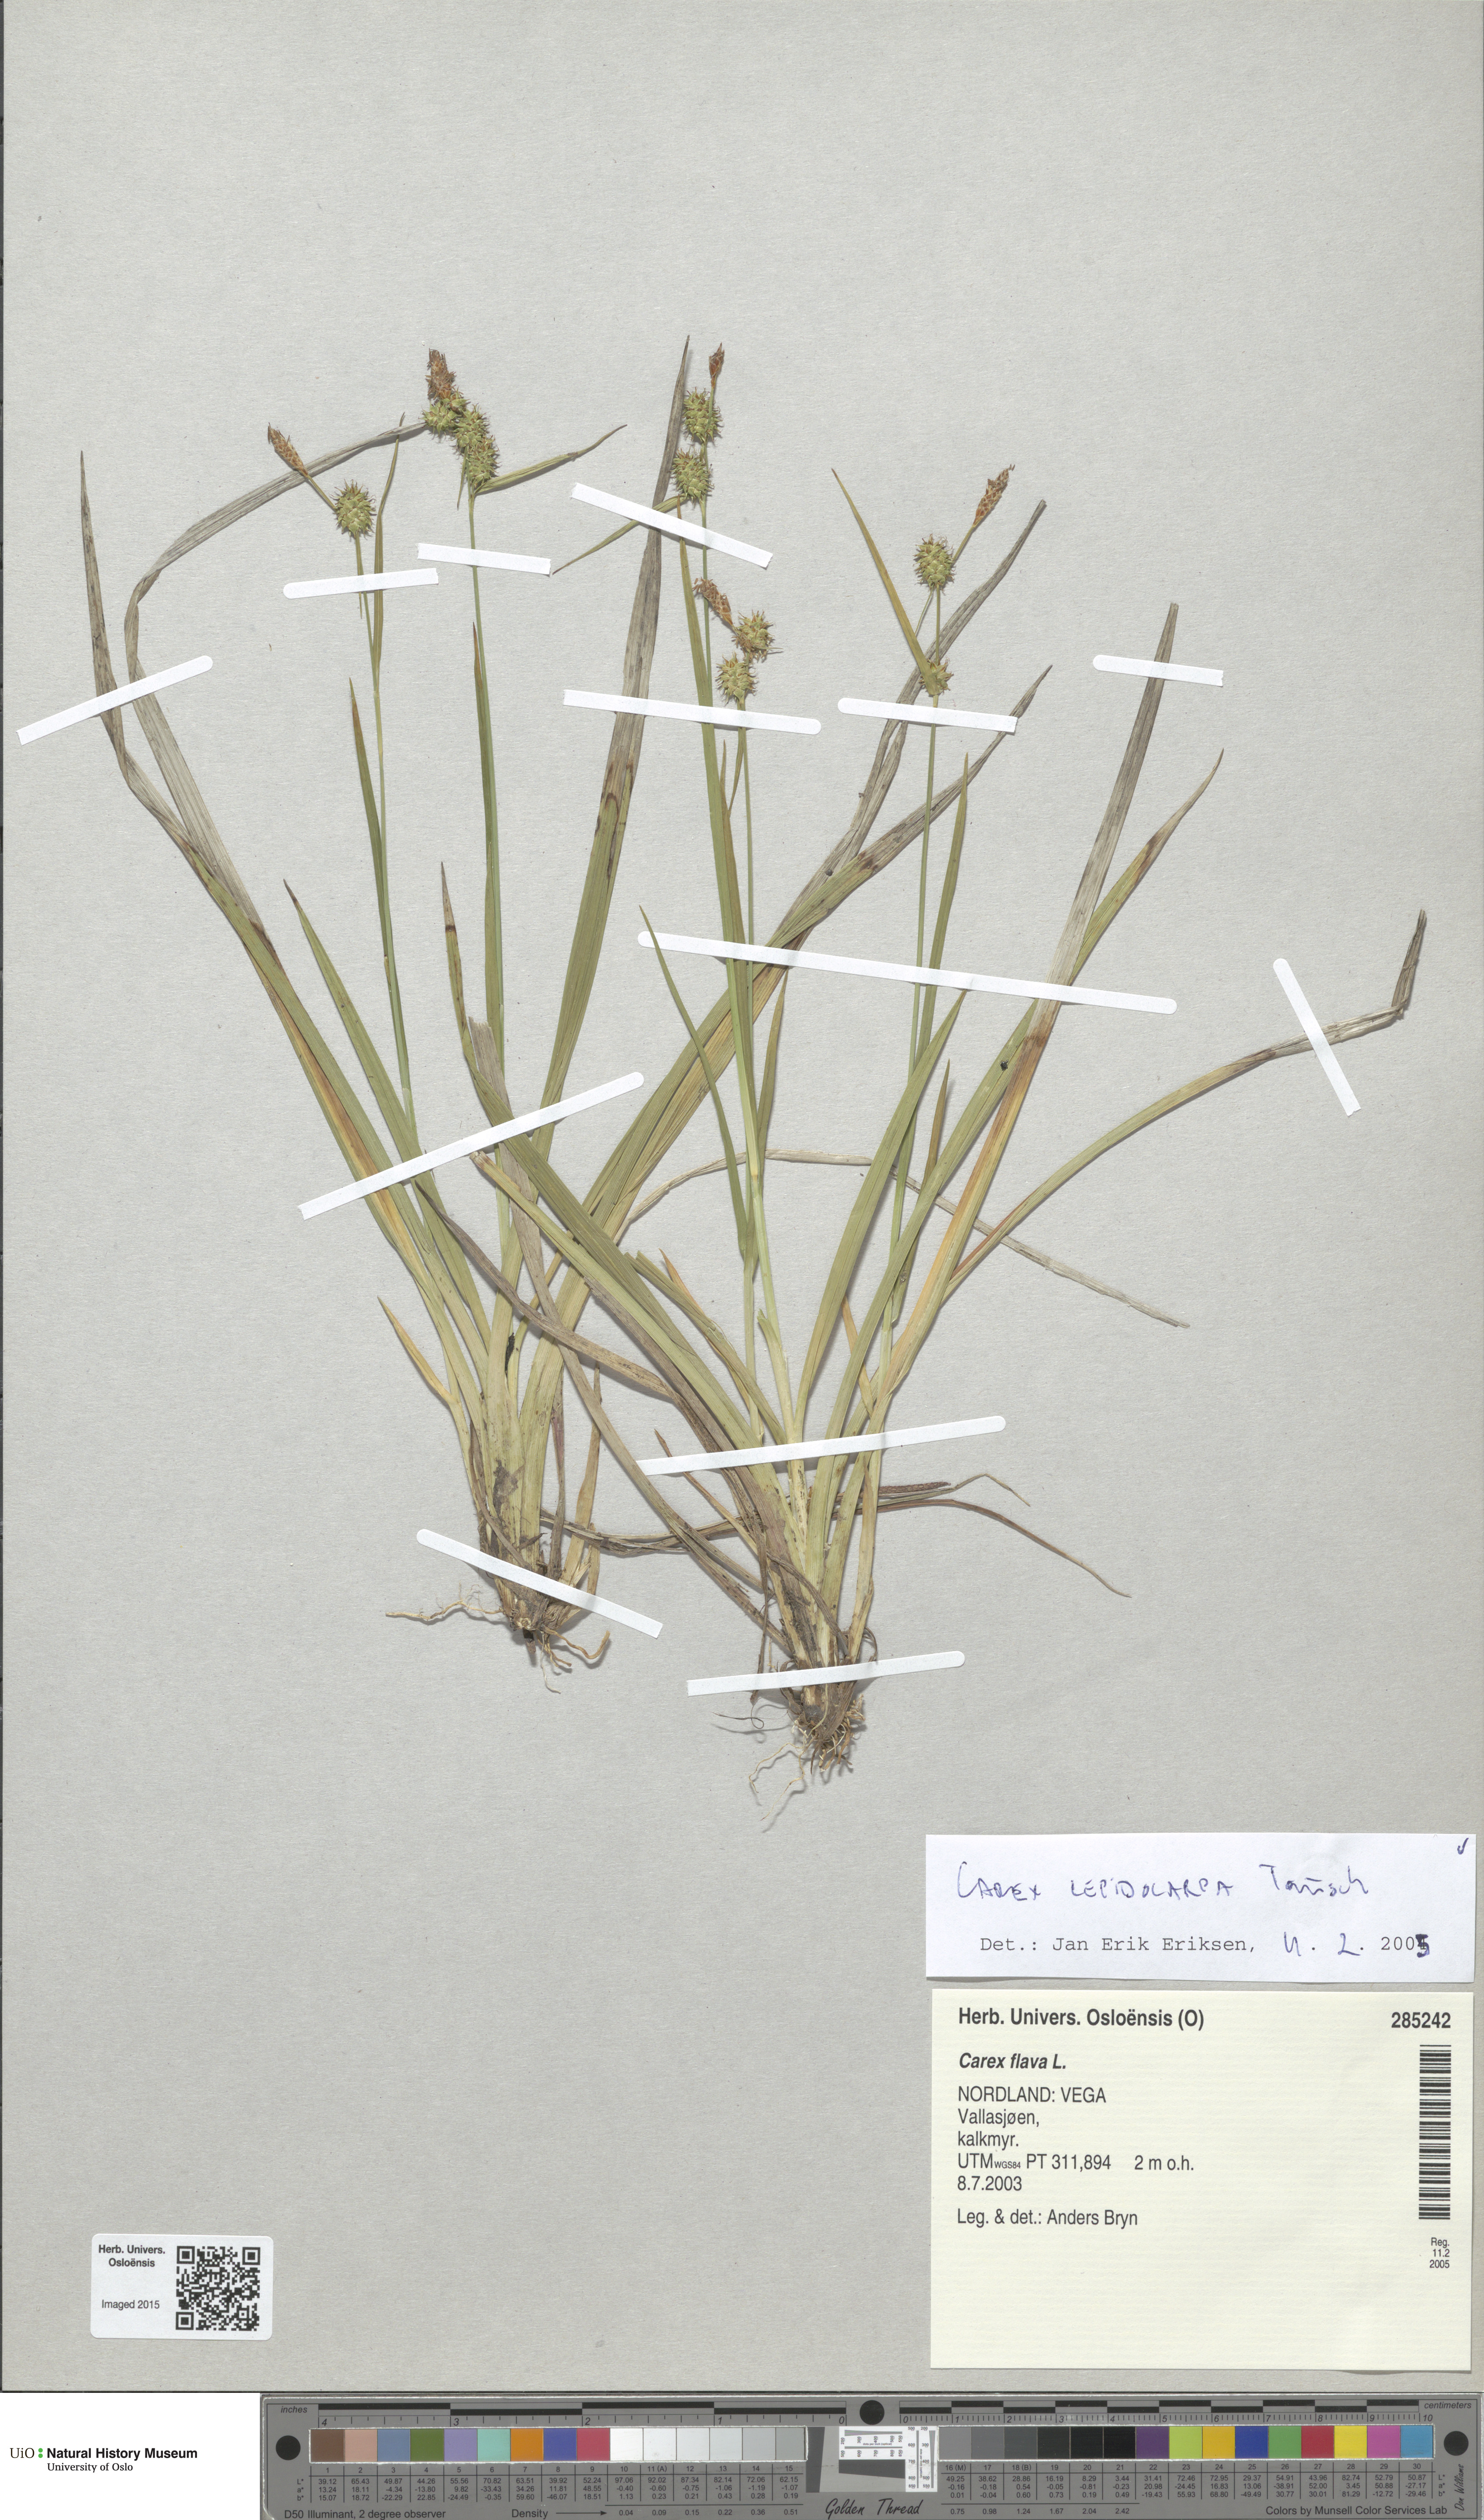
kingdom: Plantae
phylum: Tracheophyta
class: Liliopsida
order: Poales
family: Cyperaceae
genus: Carex
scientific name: Carex lepidocarpa
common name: Long-stalked yellow-sedge
